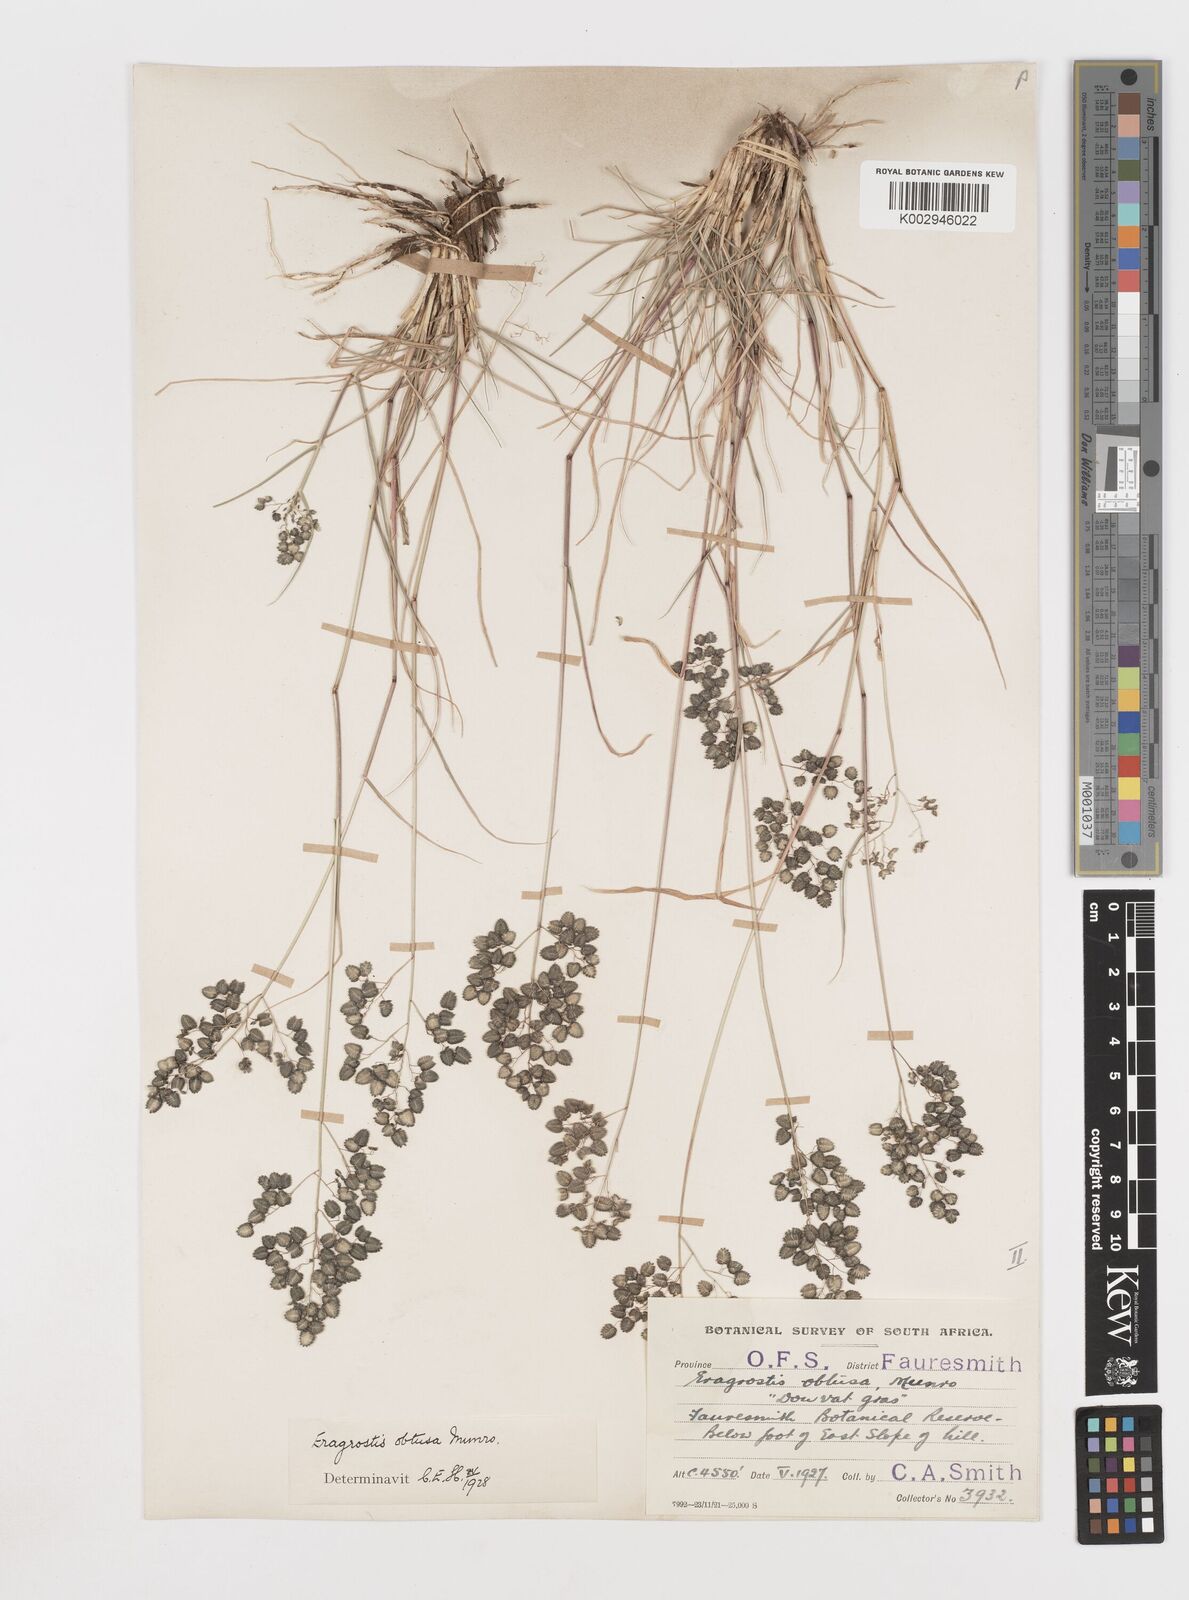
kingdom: Plantae
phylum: Tracheophyta
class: Liliopsida
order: Poales
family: Poaceae
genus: Eragrostis
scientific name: Eragrostis obtusa
